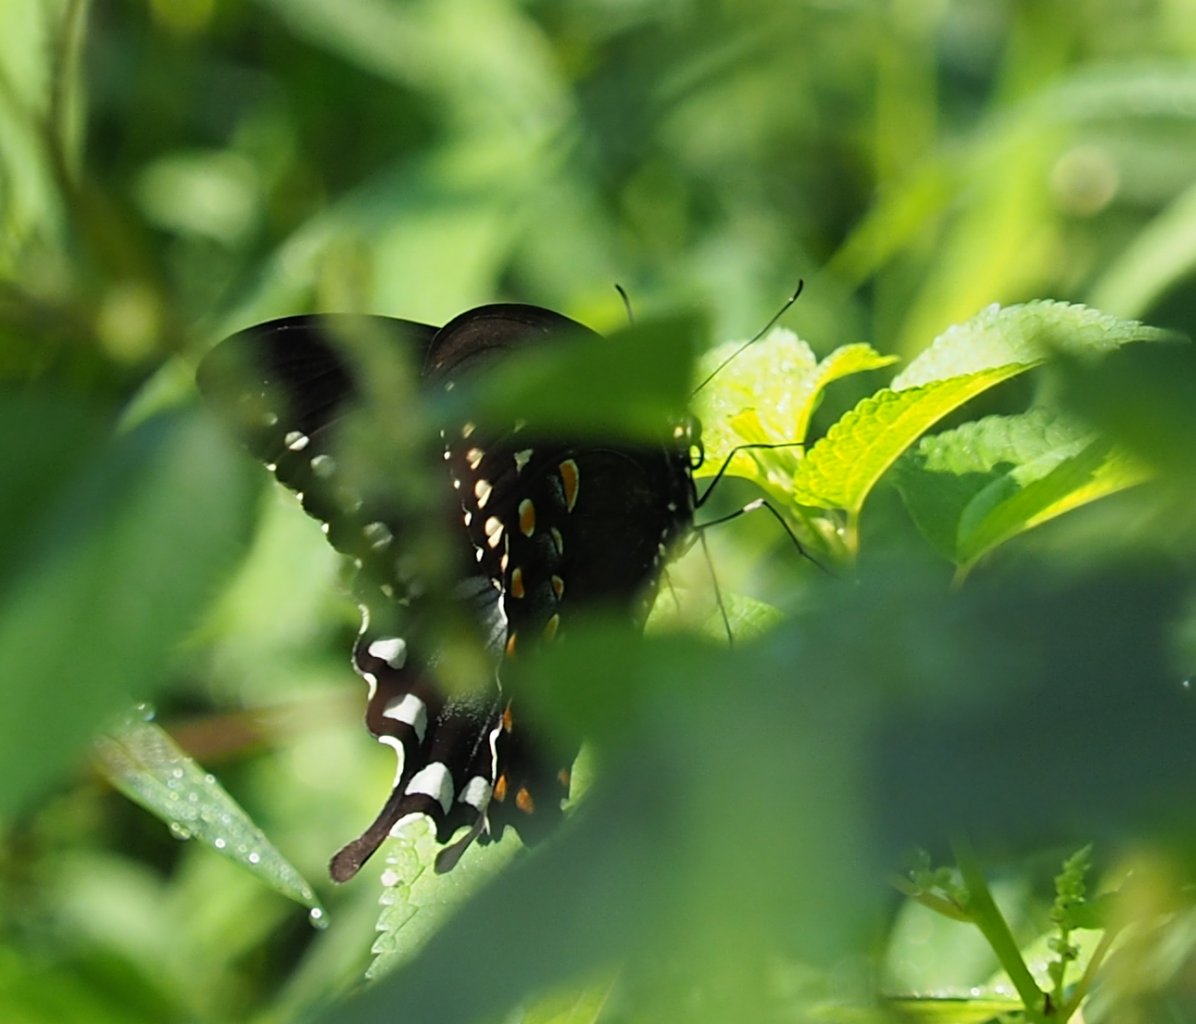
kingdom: Animalia
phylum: Arthropoda
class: Insecta
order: Lepidoptera
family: Papilionidae
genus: Pterourus
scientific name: Pterourus troilus
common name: Spicebush Swallowtail
